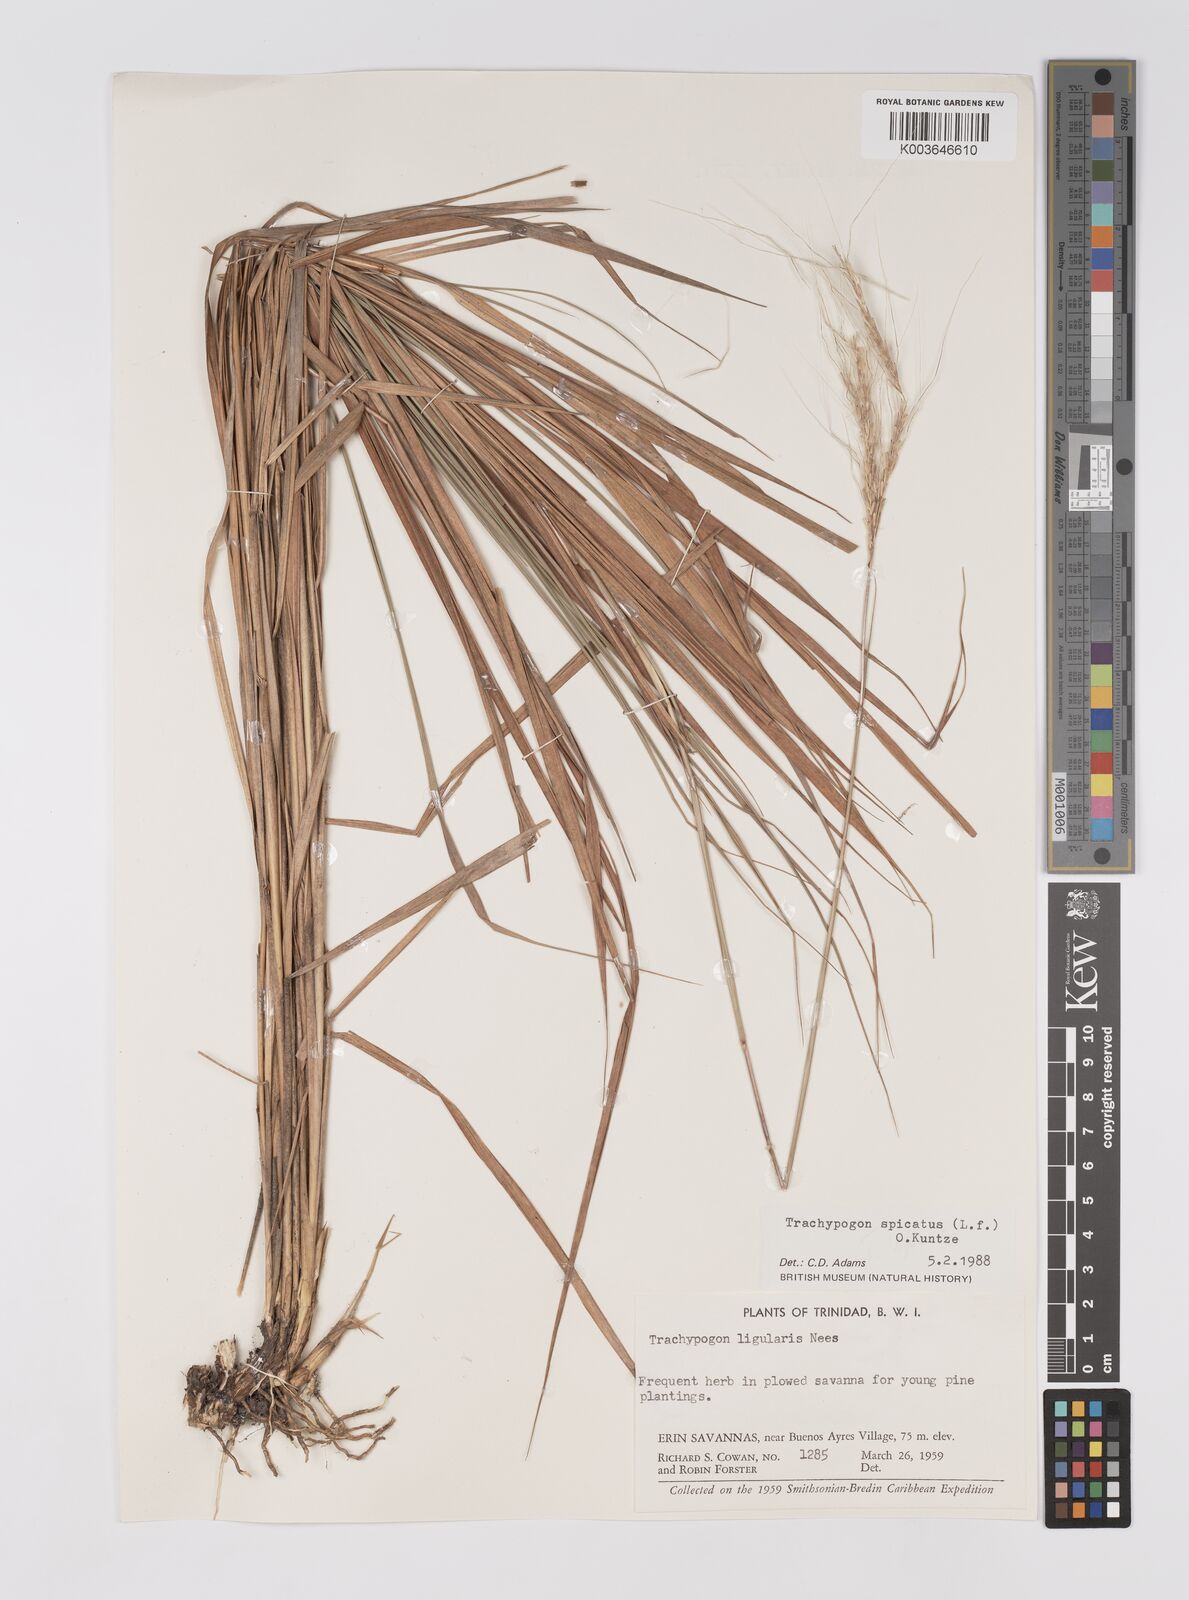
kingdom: Plantae
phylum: Tracheophyta
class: Liliopsida
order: Poales
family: Poaceae
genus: Trachypogon
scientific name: Trachypogon spicatus
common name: Crinkle-awn
